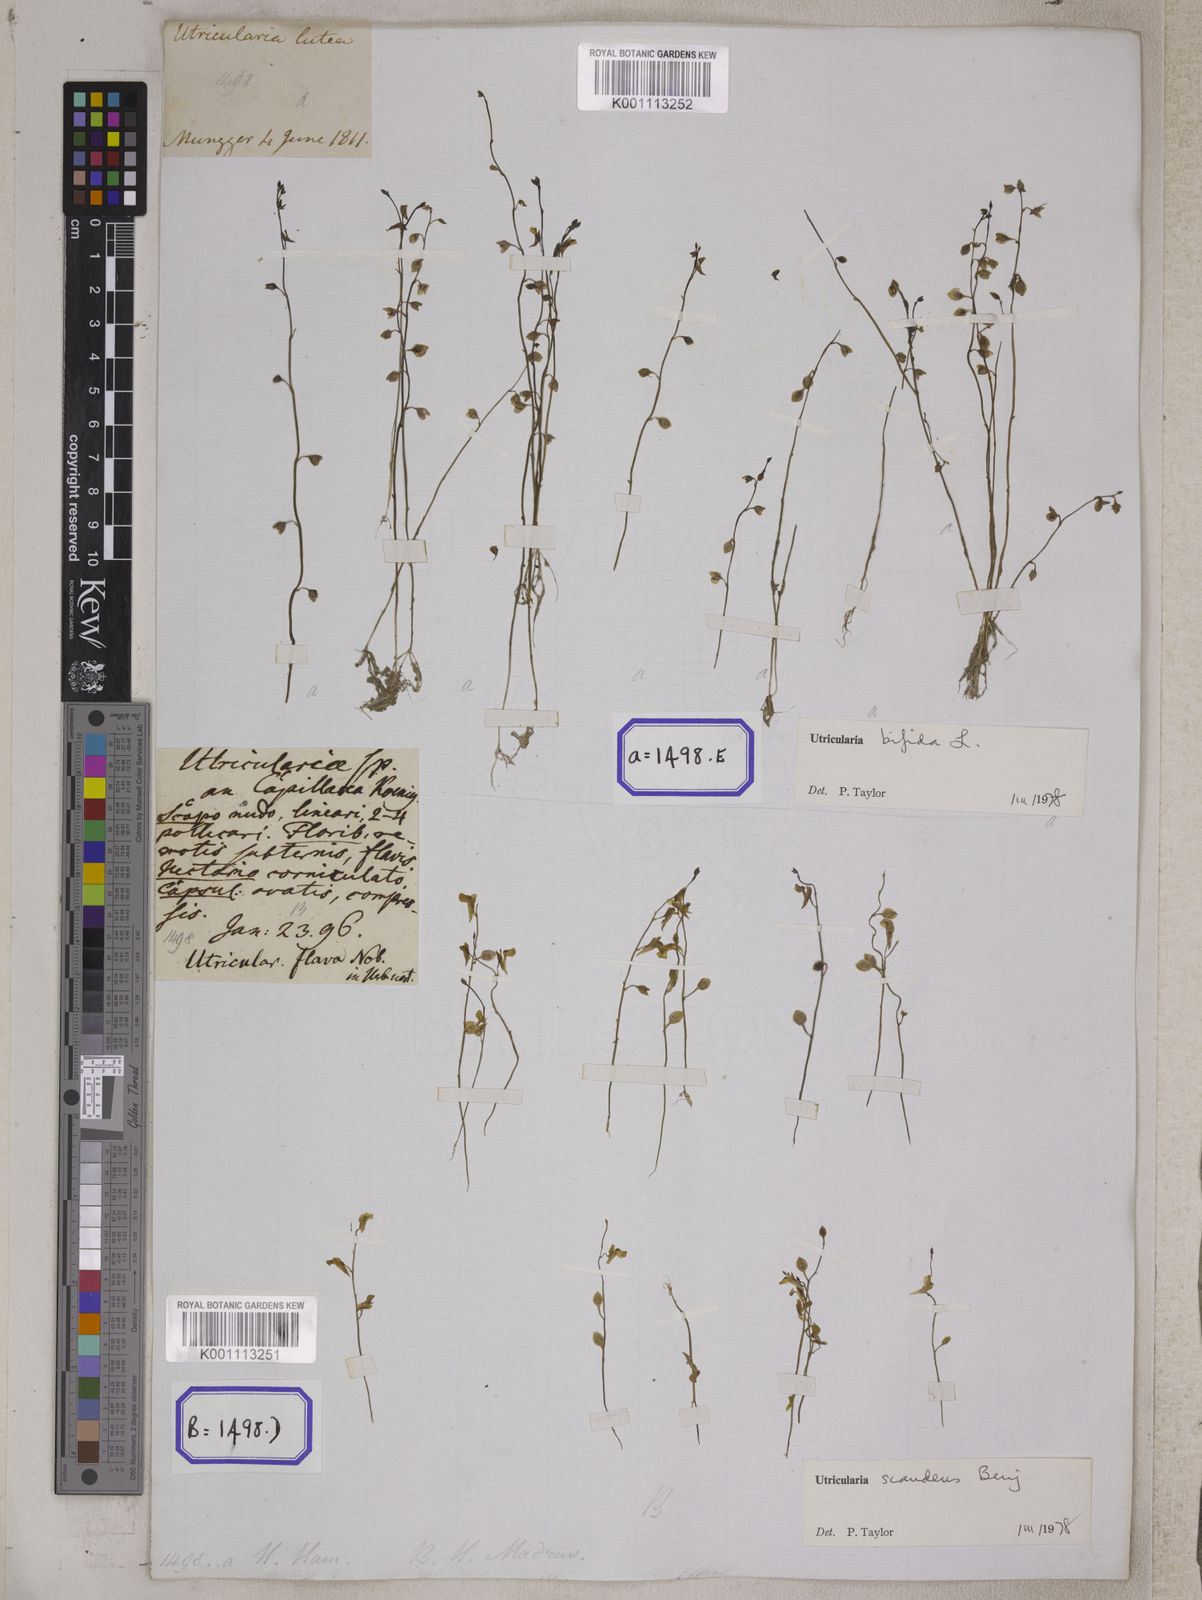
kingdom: Plantae
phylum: Tracheophyta
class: Magnoliopsida
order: Lamiales
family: Lentibulariaceae
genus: Utricularia
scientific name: Utricularia gibba
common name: Humped bladderwort
